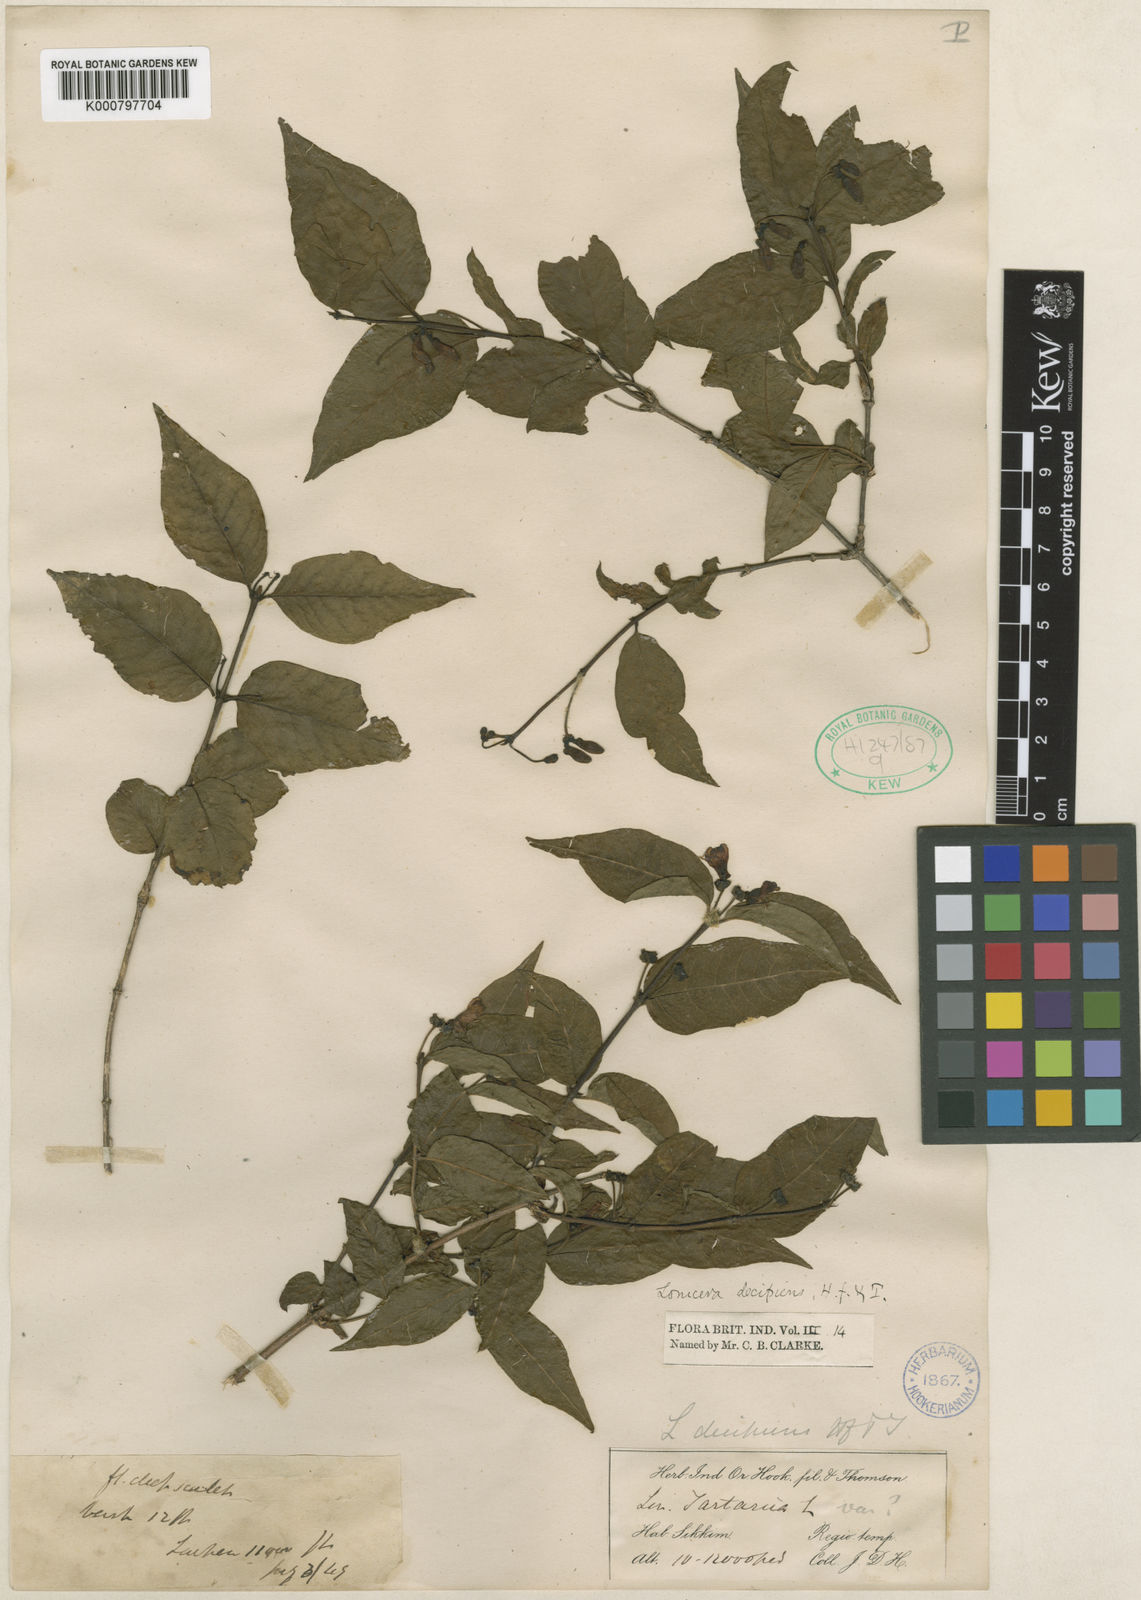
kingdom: Plantae
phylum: Tracheophyta
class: Magnoliopsida
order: Dipsacales
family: Caprifoliaceae
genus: Lonicera
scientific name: Lonicera lanceolata
